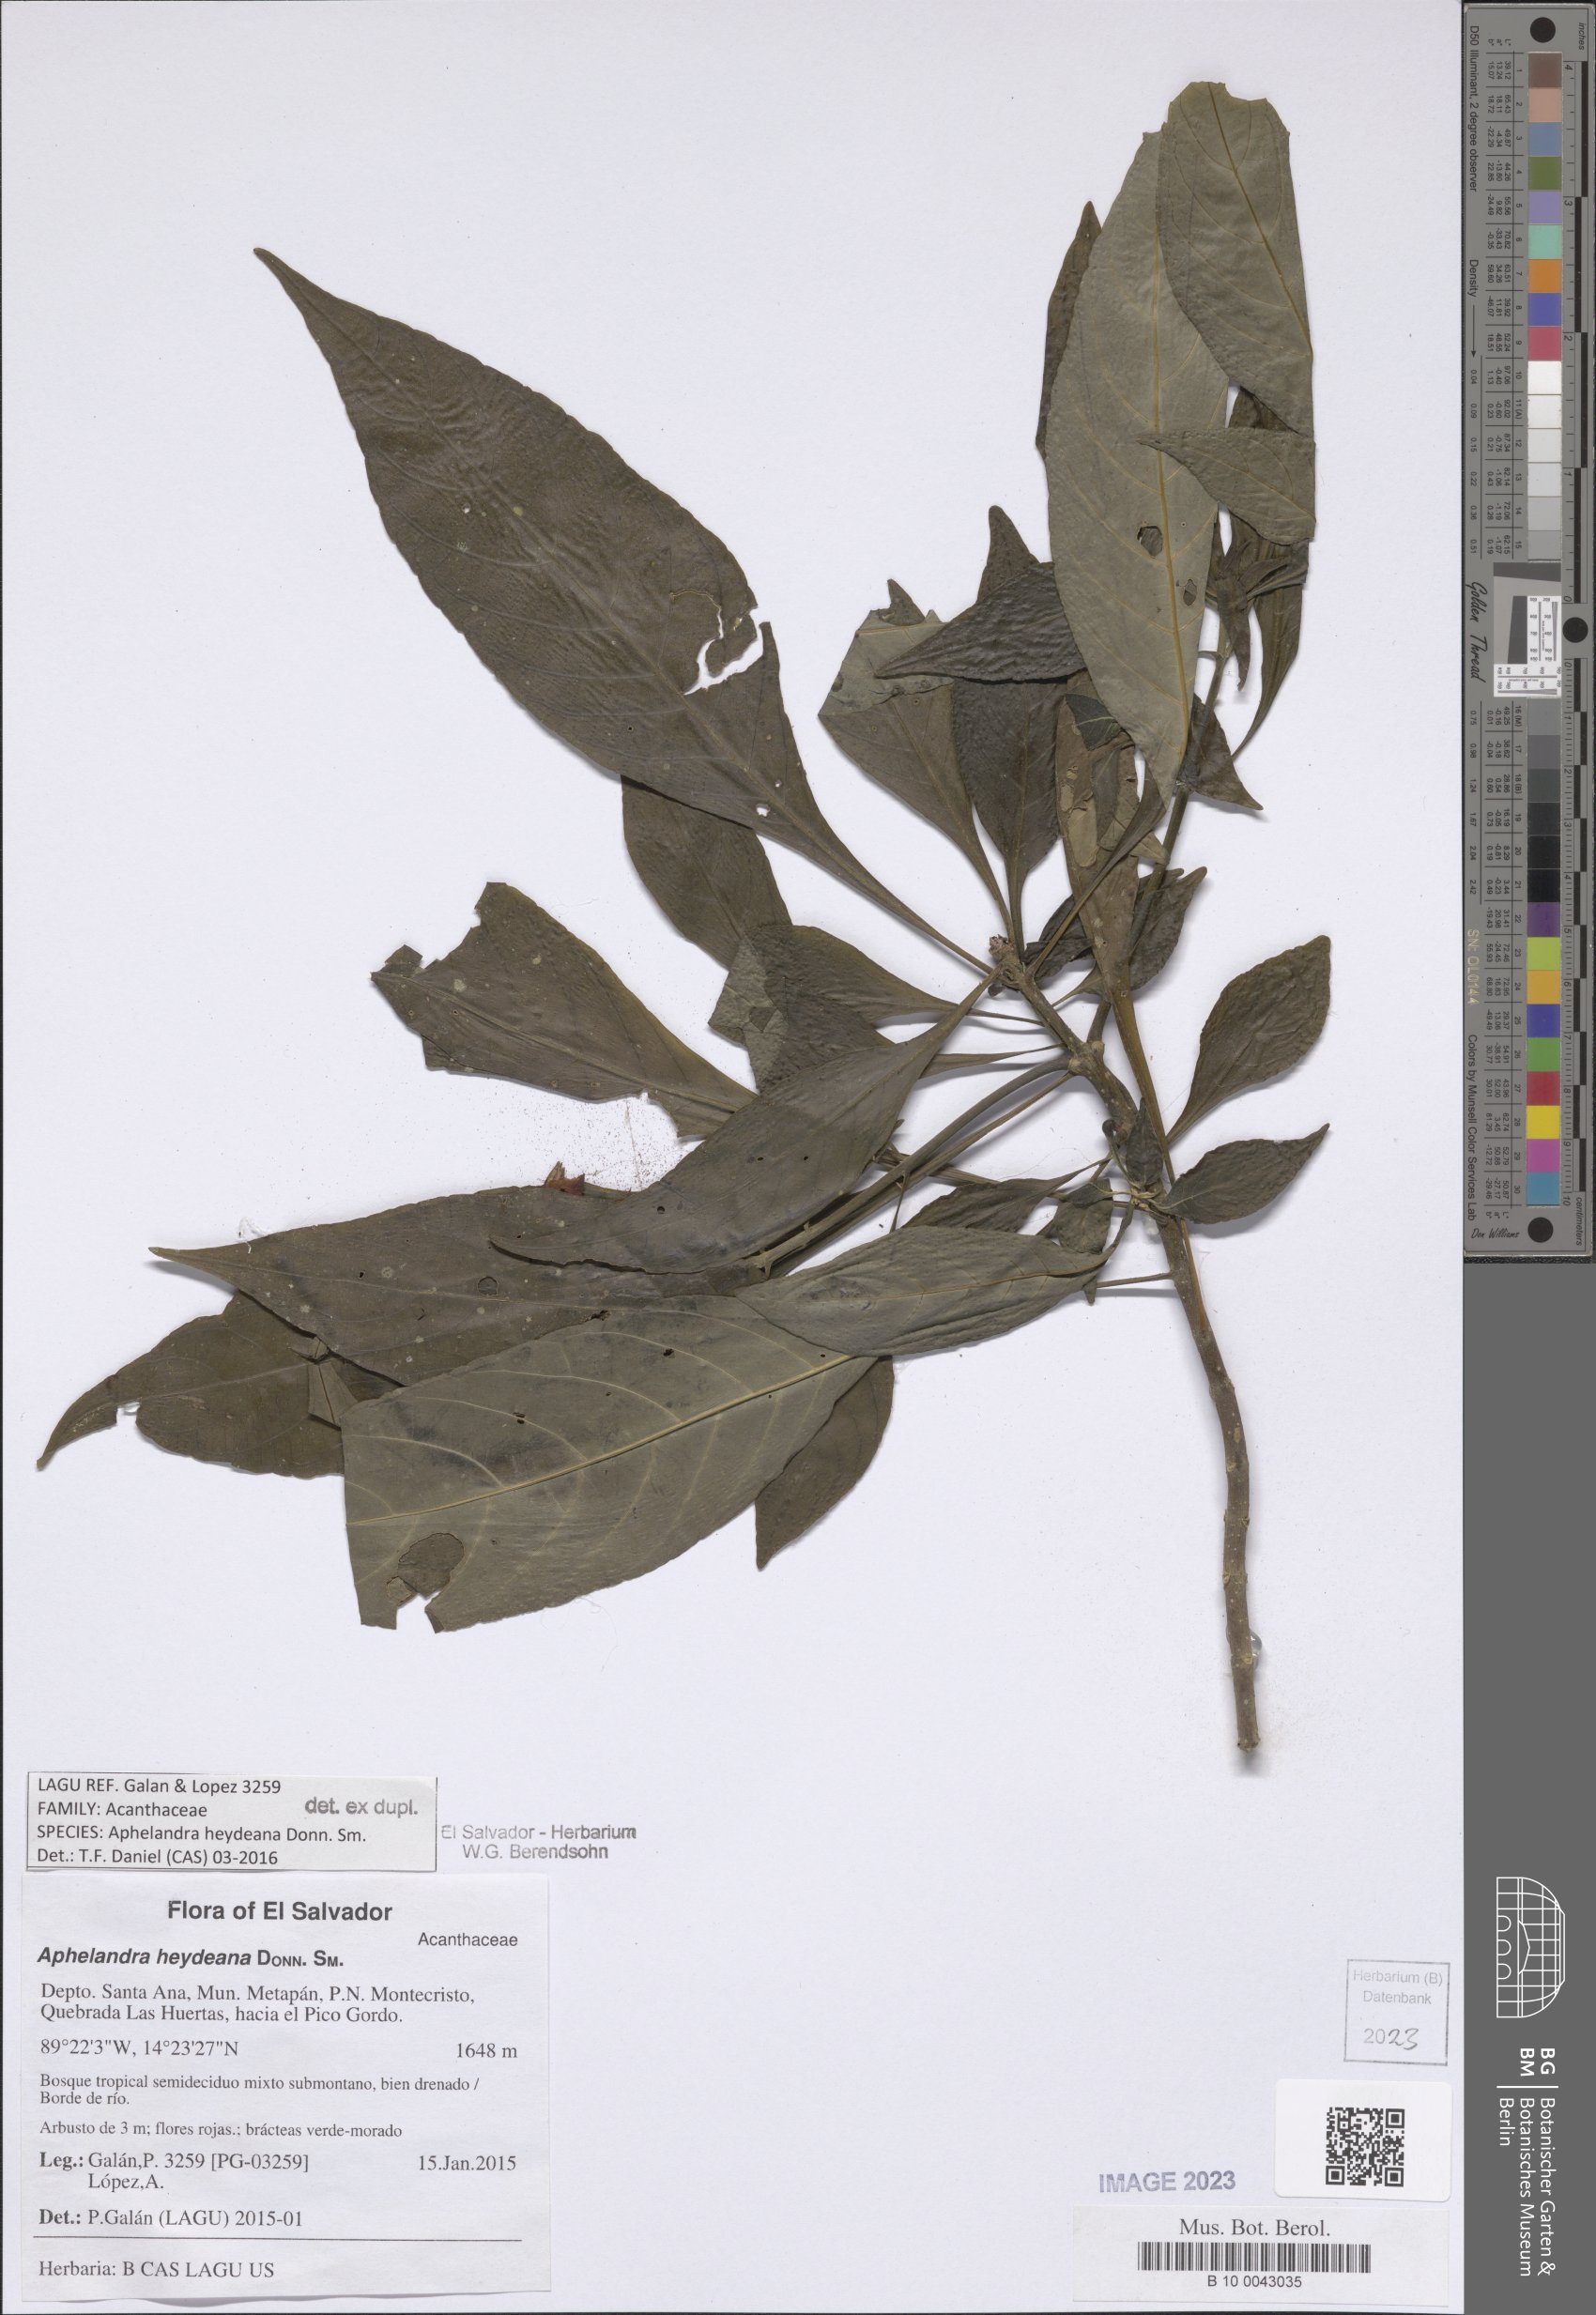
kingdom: Plantae
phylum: Tracheophyta
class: Magnoliopsida
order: Lamiales
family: Acanthaceae
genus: Aphelandra
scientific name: Aphelandra heydeana
